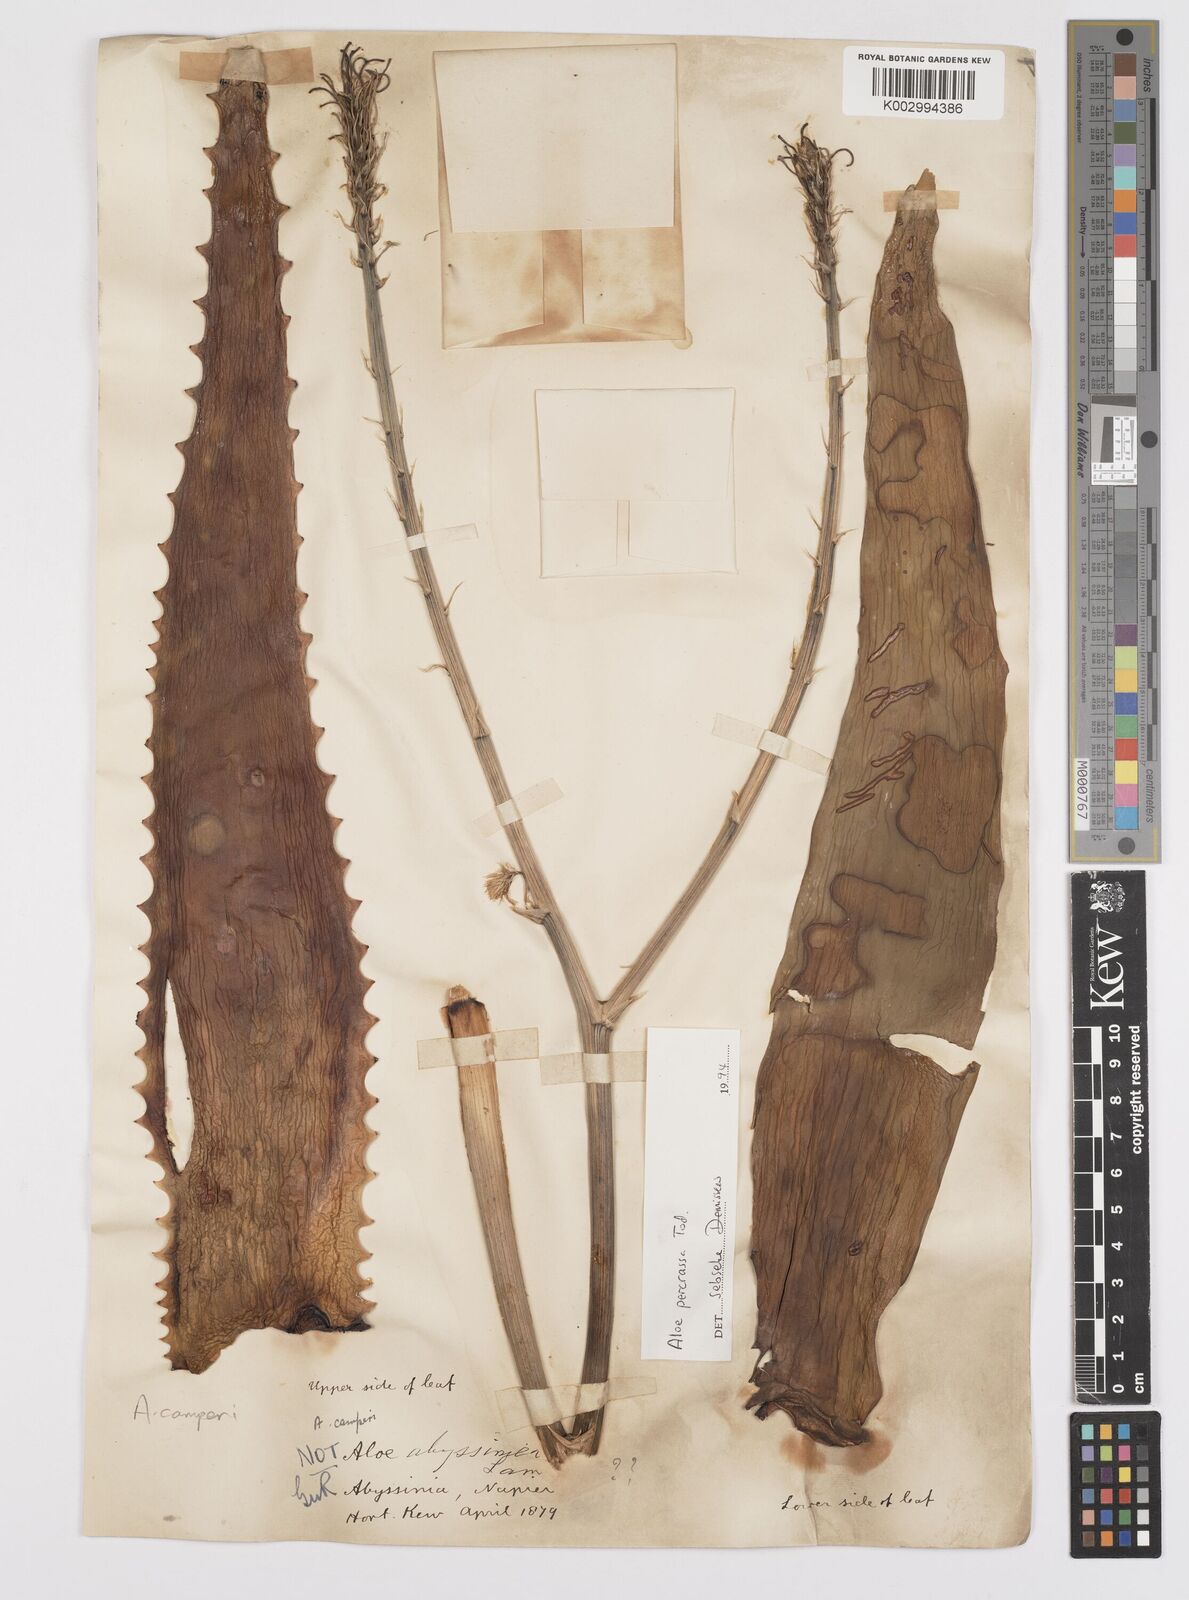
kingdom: Plantae
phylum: Tracheophyta
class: Liliopsida
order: Asparagales
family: Asphodelaceae
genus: Aloe
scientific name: Aloe
